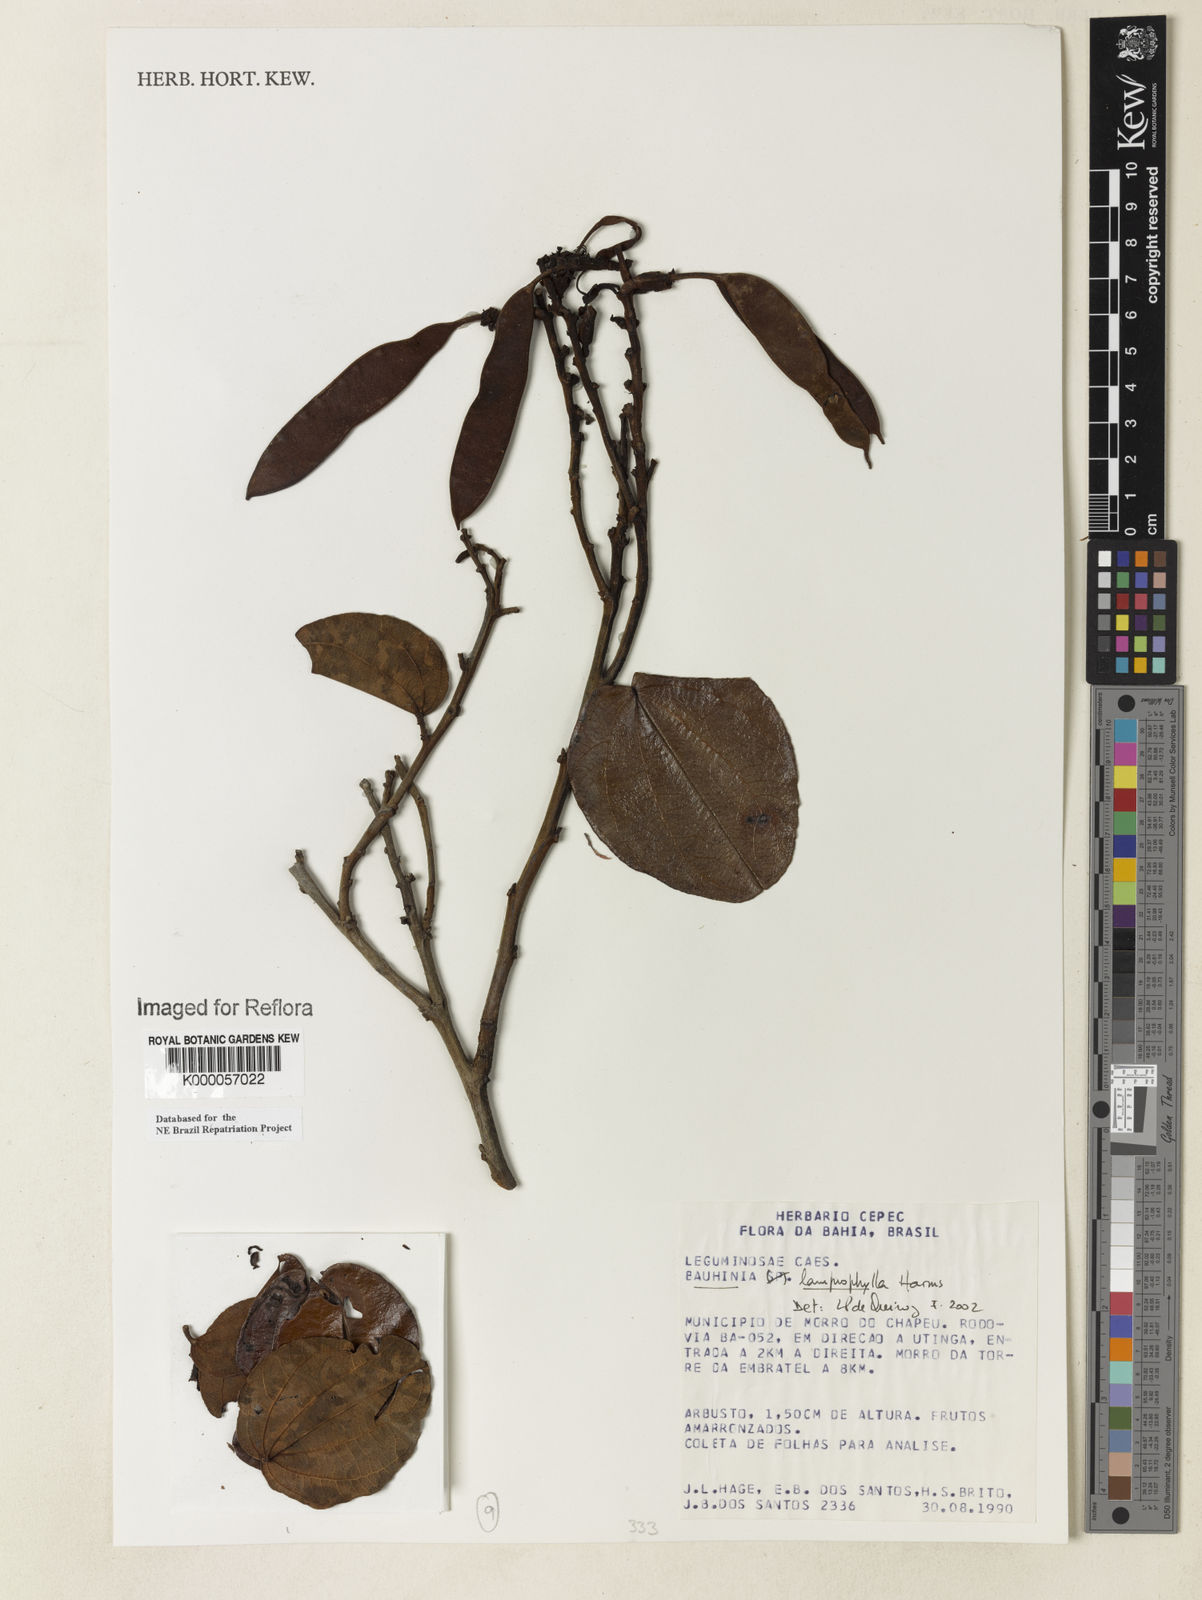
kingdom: Plantae
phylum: Tracheophyta
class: Magnoliopsida
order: Fabales
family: Fabaceae
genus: Bauhinia
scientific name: Bauhinia acuruana
